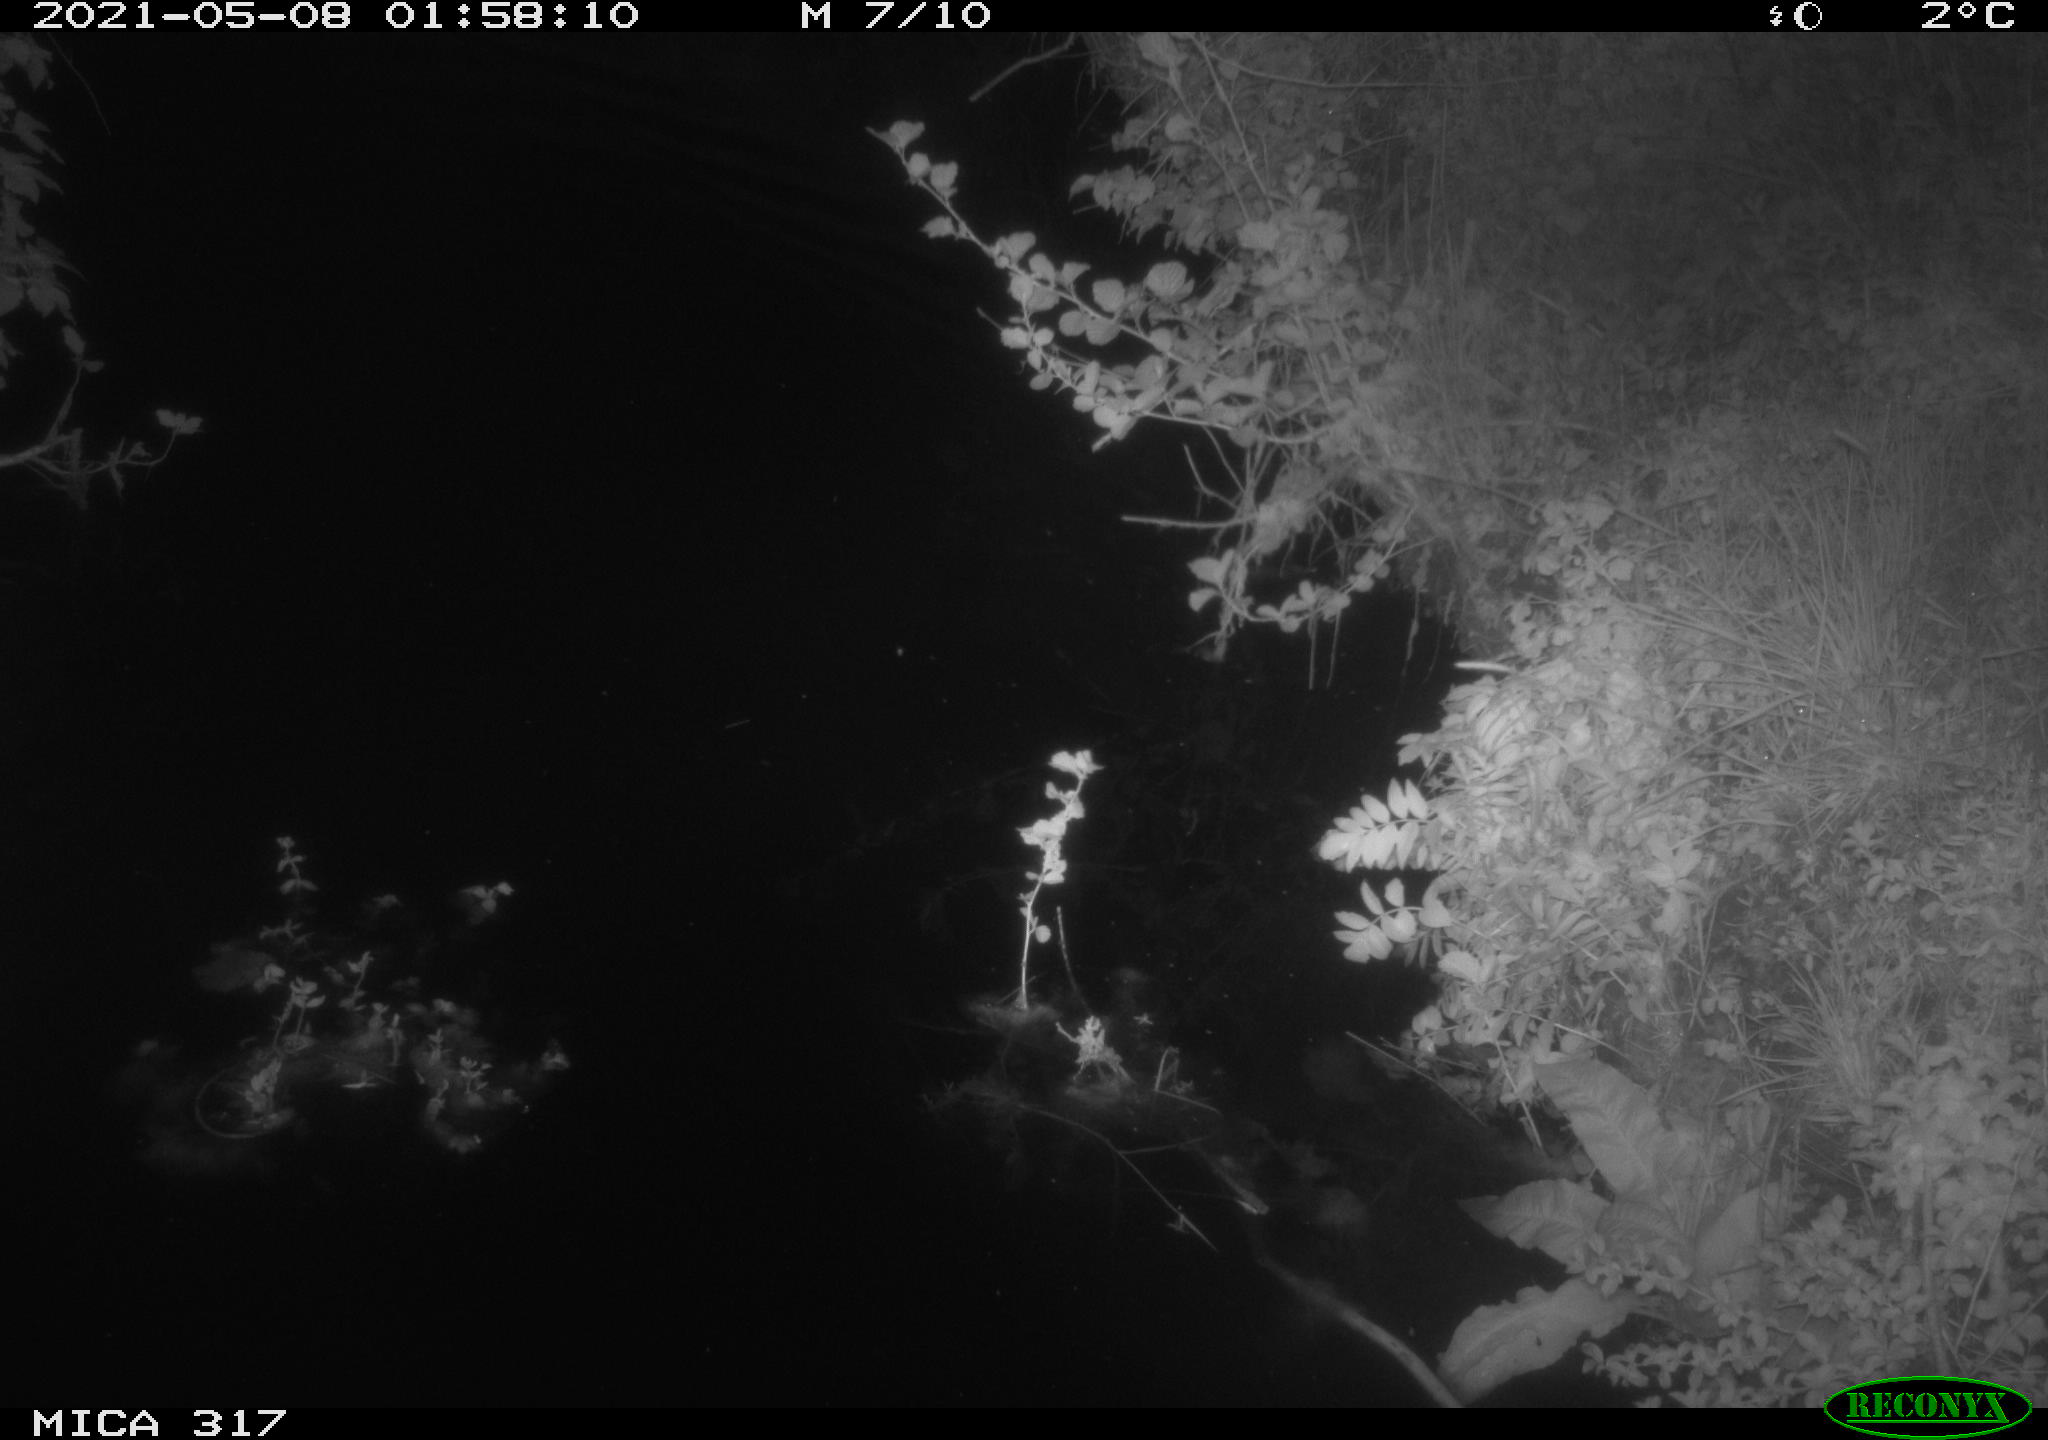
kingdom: Animalia
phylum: Chordata
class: Aves
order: Anseriformes
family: Anatidae
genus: Anas
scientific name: Anas
